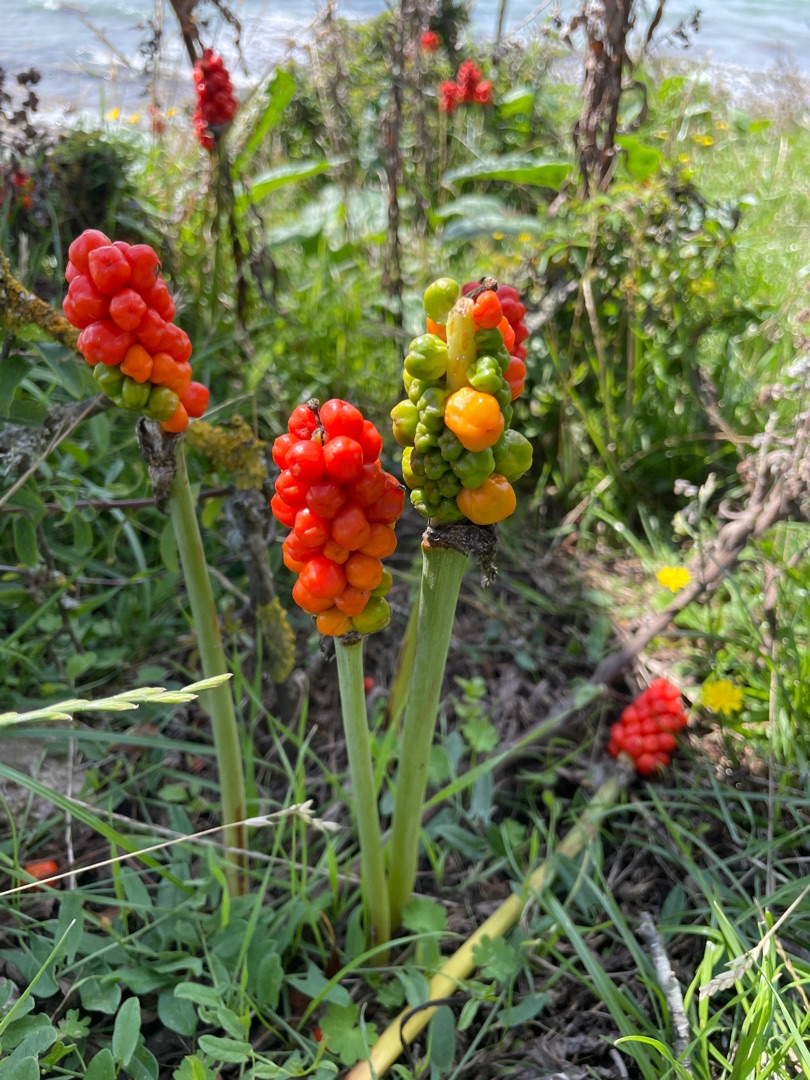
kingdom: Plantae
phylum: Tracheophyta
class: Liliopsida
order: Alismatales
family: Araceae
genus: Arum
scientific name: Arum
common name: Arumslægten
